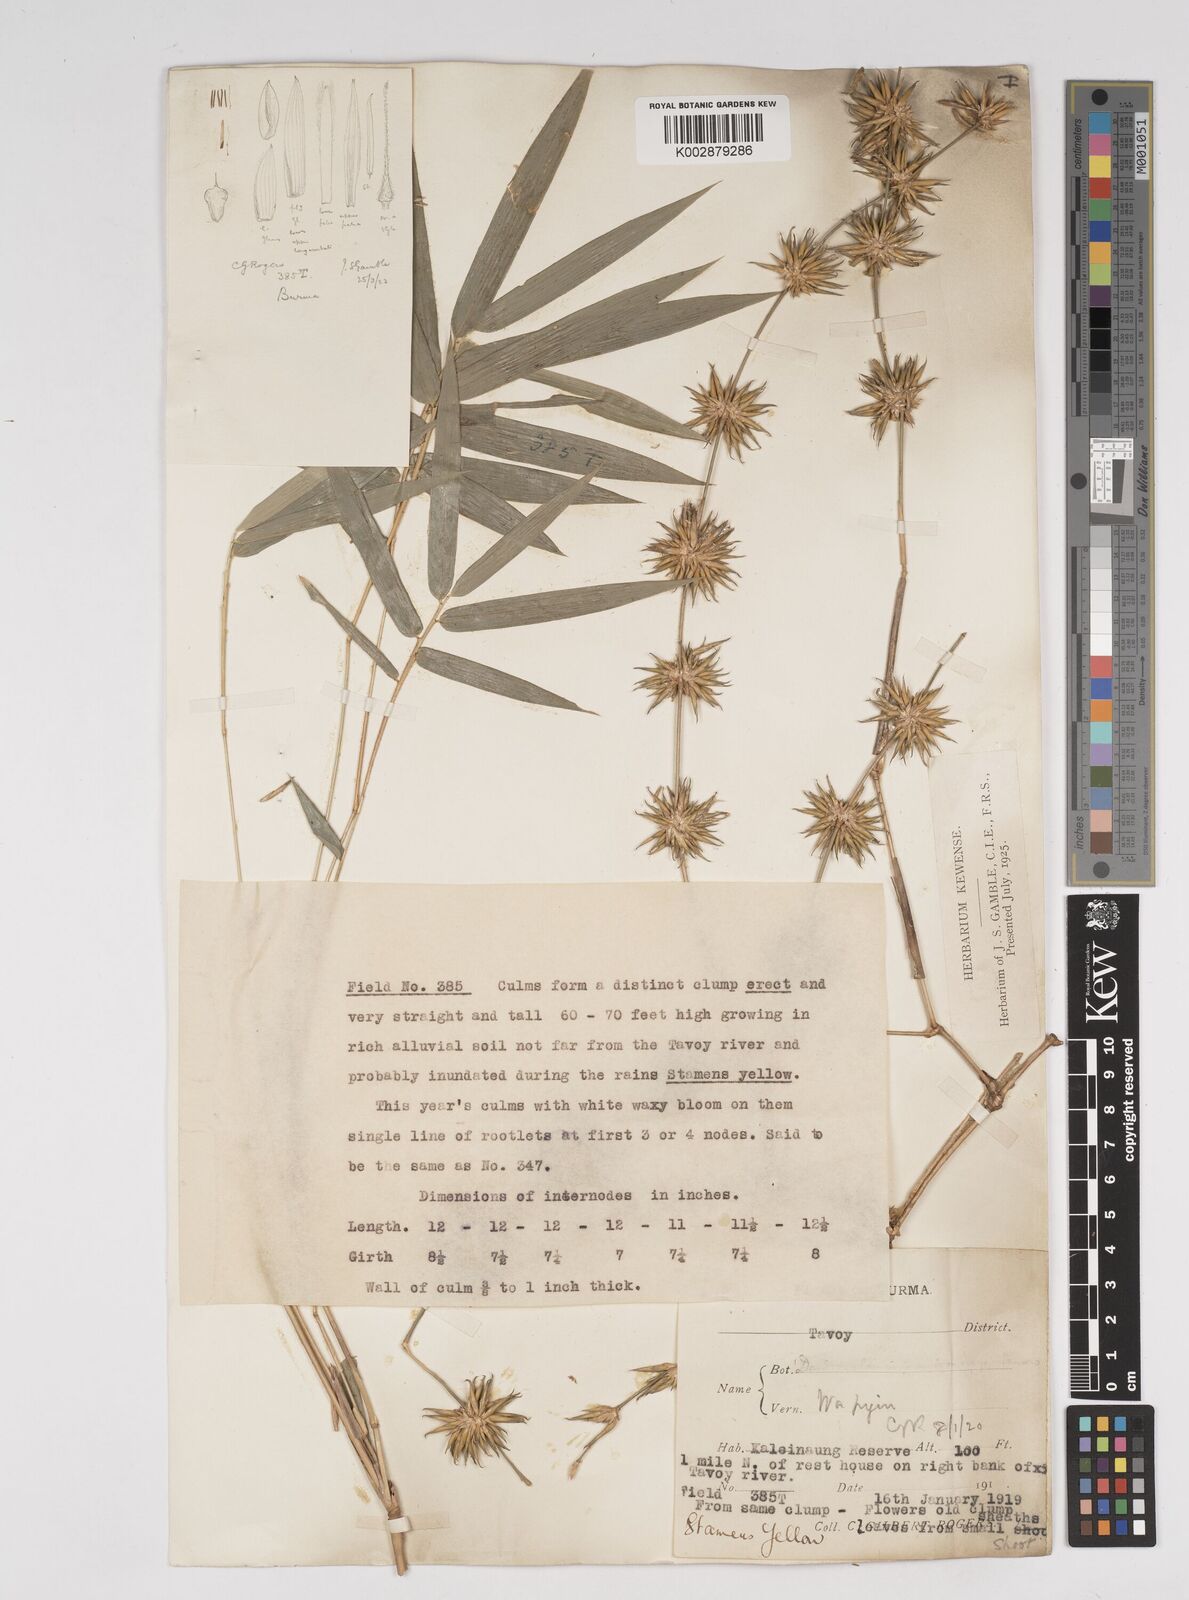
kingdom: Plantae
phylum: Tracheophyta
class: Liliopsida
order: Poales
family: Poaceae
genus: Dendrocalamus
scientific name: Dendrocalamus
